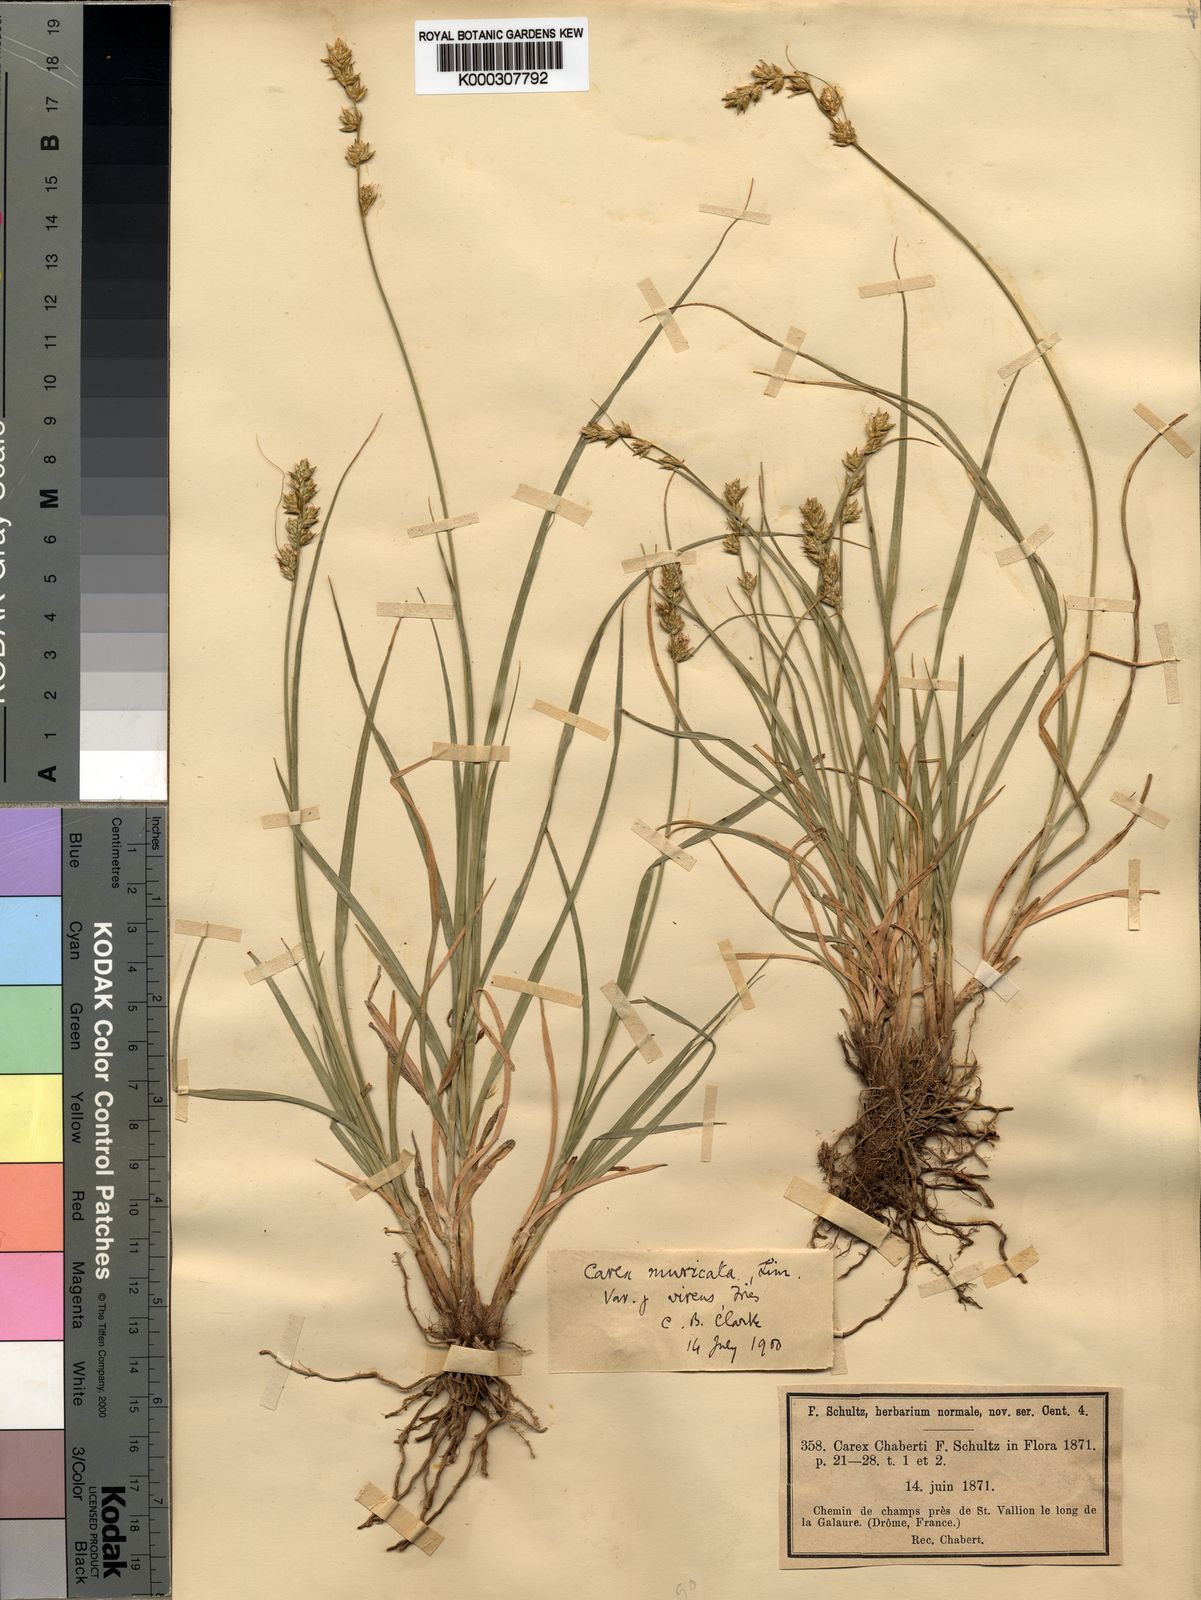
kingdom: Plantae
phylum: Tracheophyta
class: Liliopsida
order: Poales
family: Cyperaceae
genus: Carex
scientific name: Carex otrubae
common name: False fox-sedge
